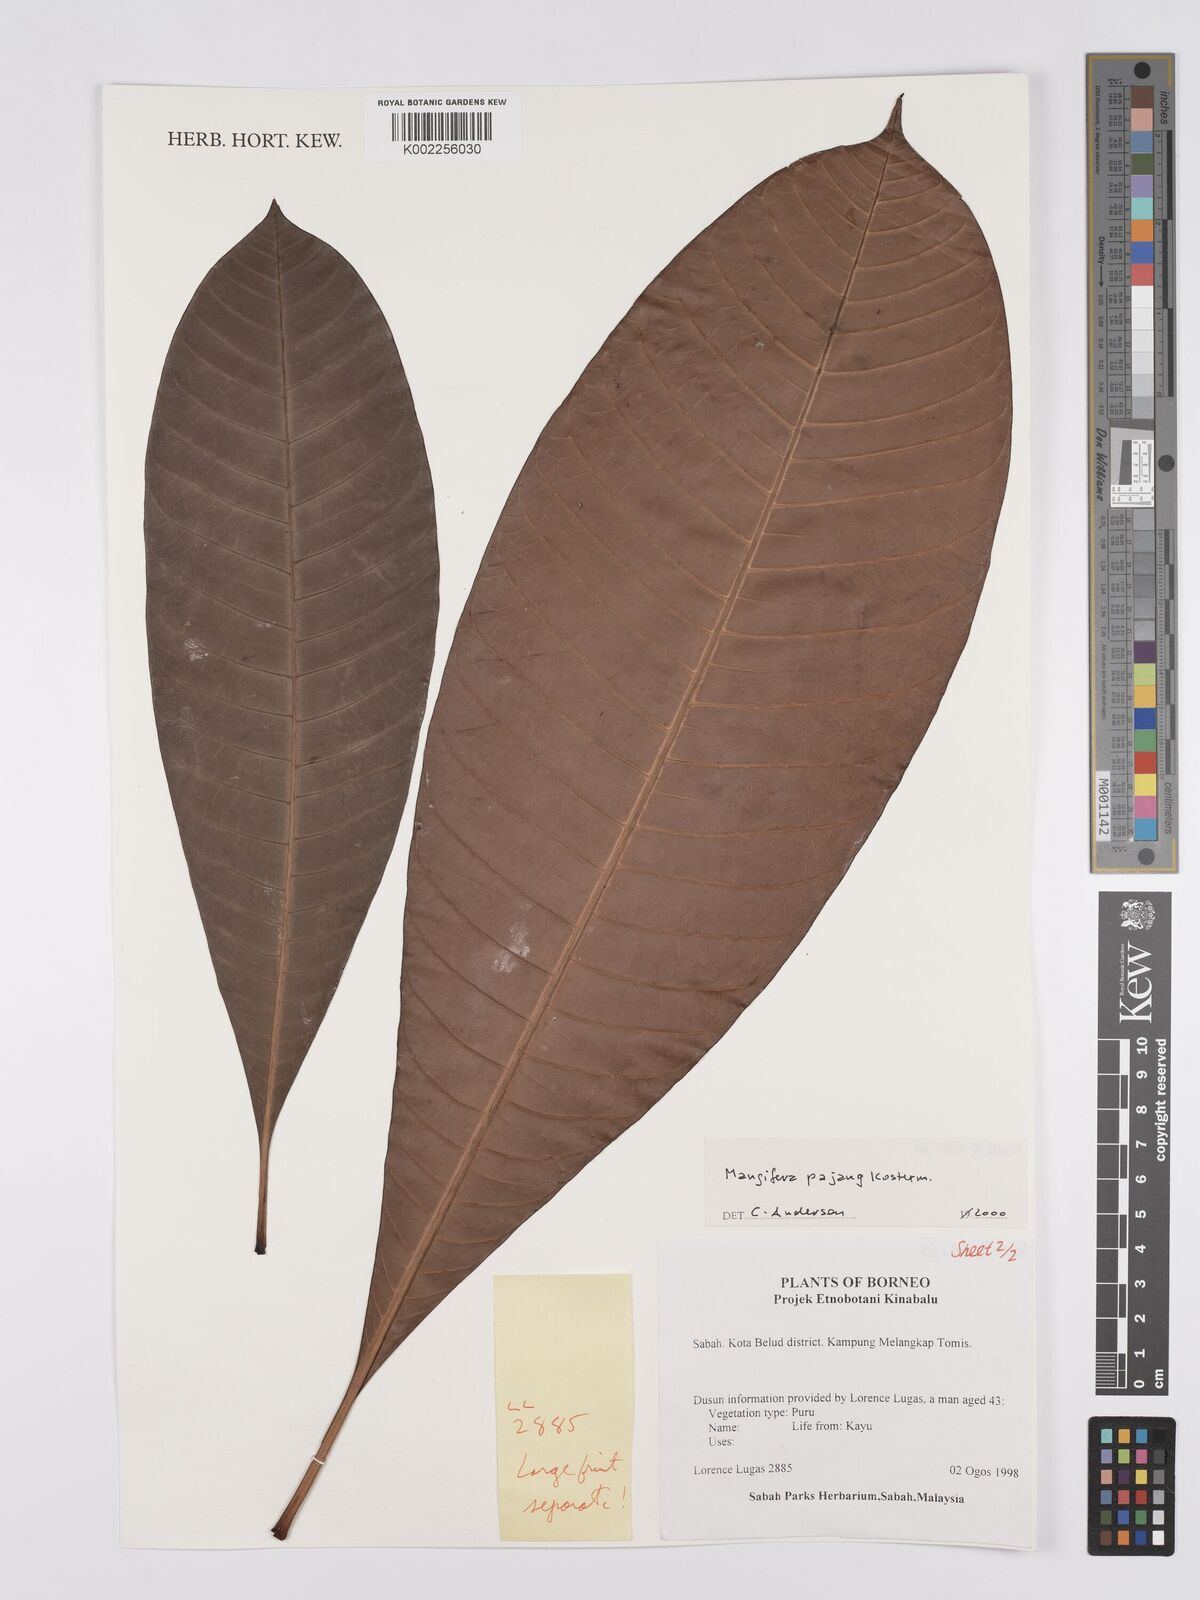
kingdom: Plantae
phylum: Tracheophyta
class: Magnoliopsida
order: Sapindales
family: Anacardiaceae
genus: Mangifera
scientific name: Mangifera pajang
